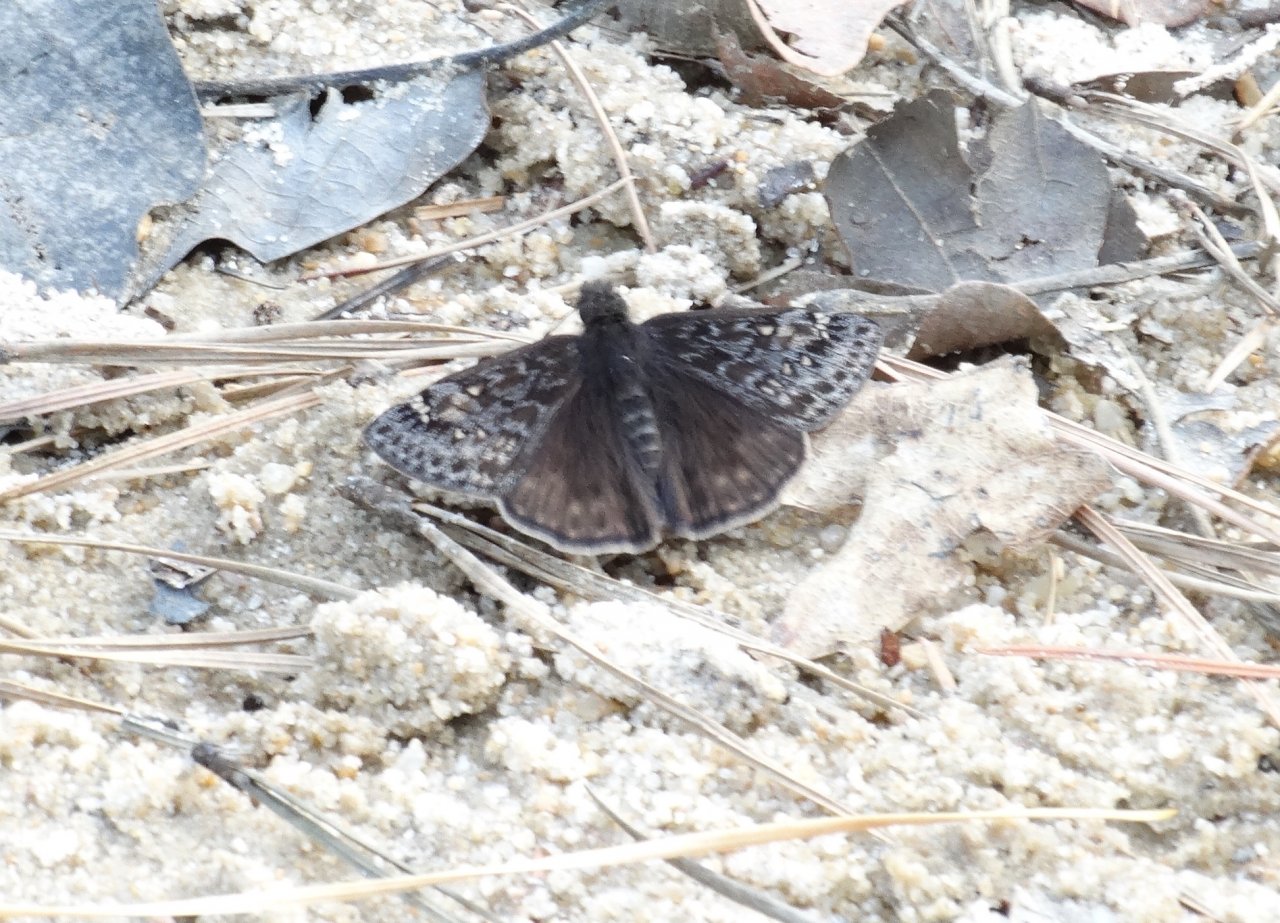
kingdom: Animalia
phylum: Arthropoda
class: Insecta
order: Lepidoptera
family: Hesperiidae
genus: Gesta
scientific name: Gesta
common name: Juvenal's Duskywing
